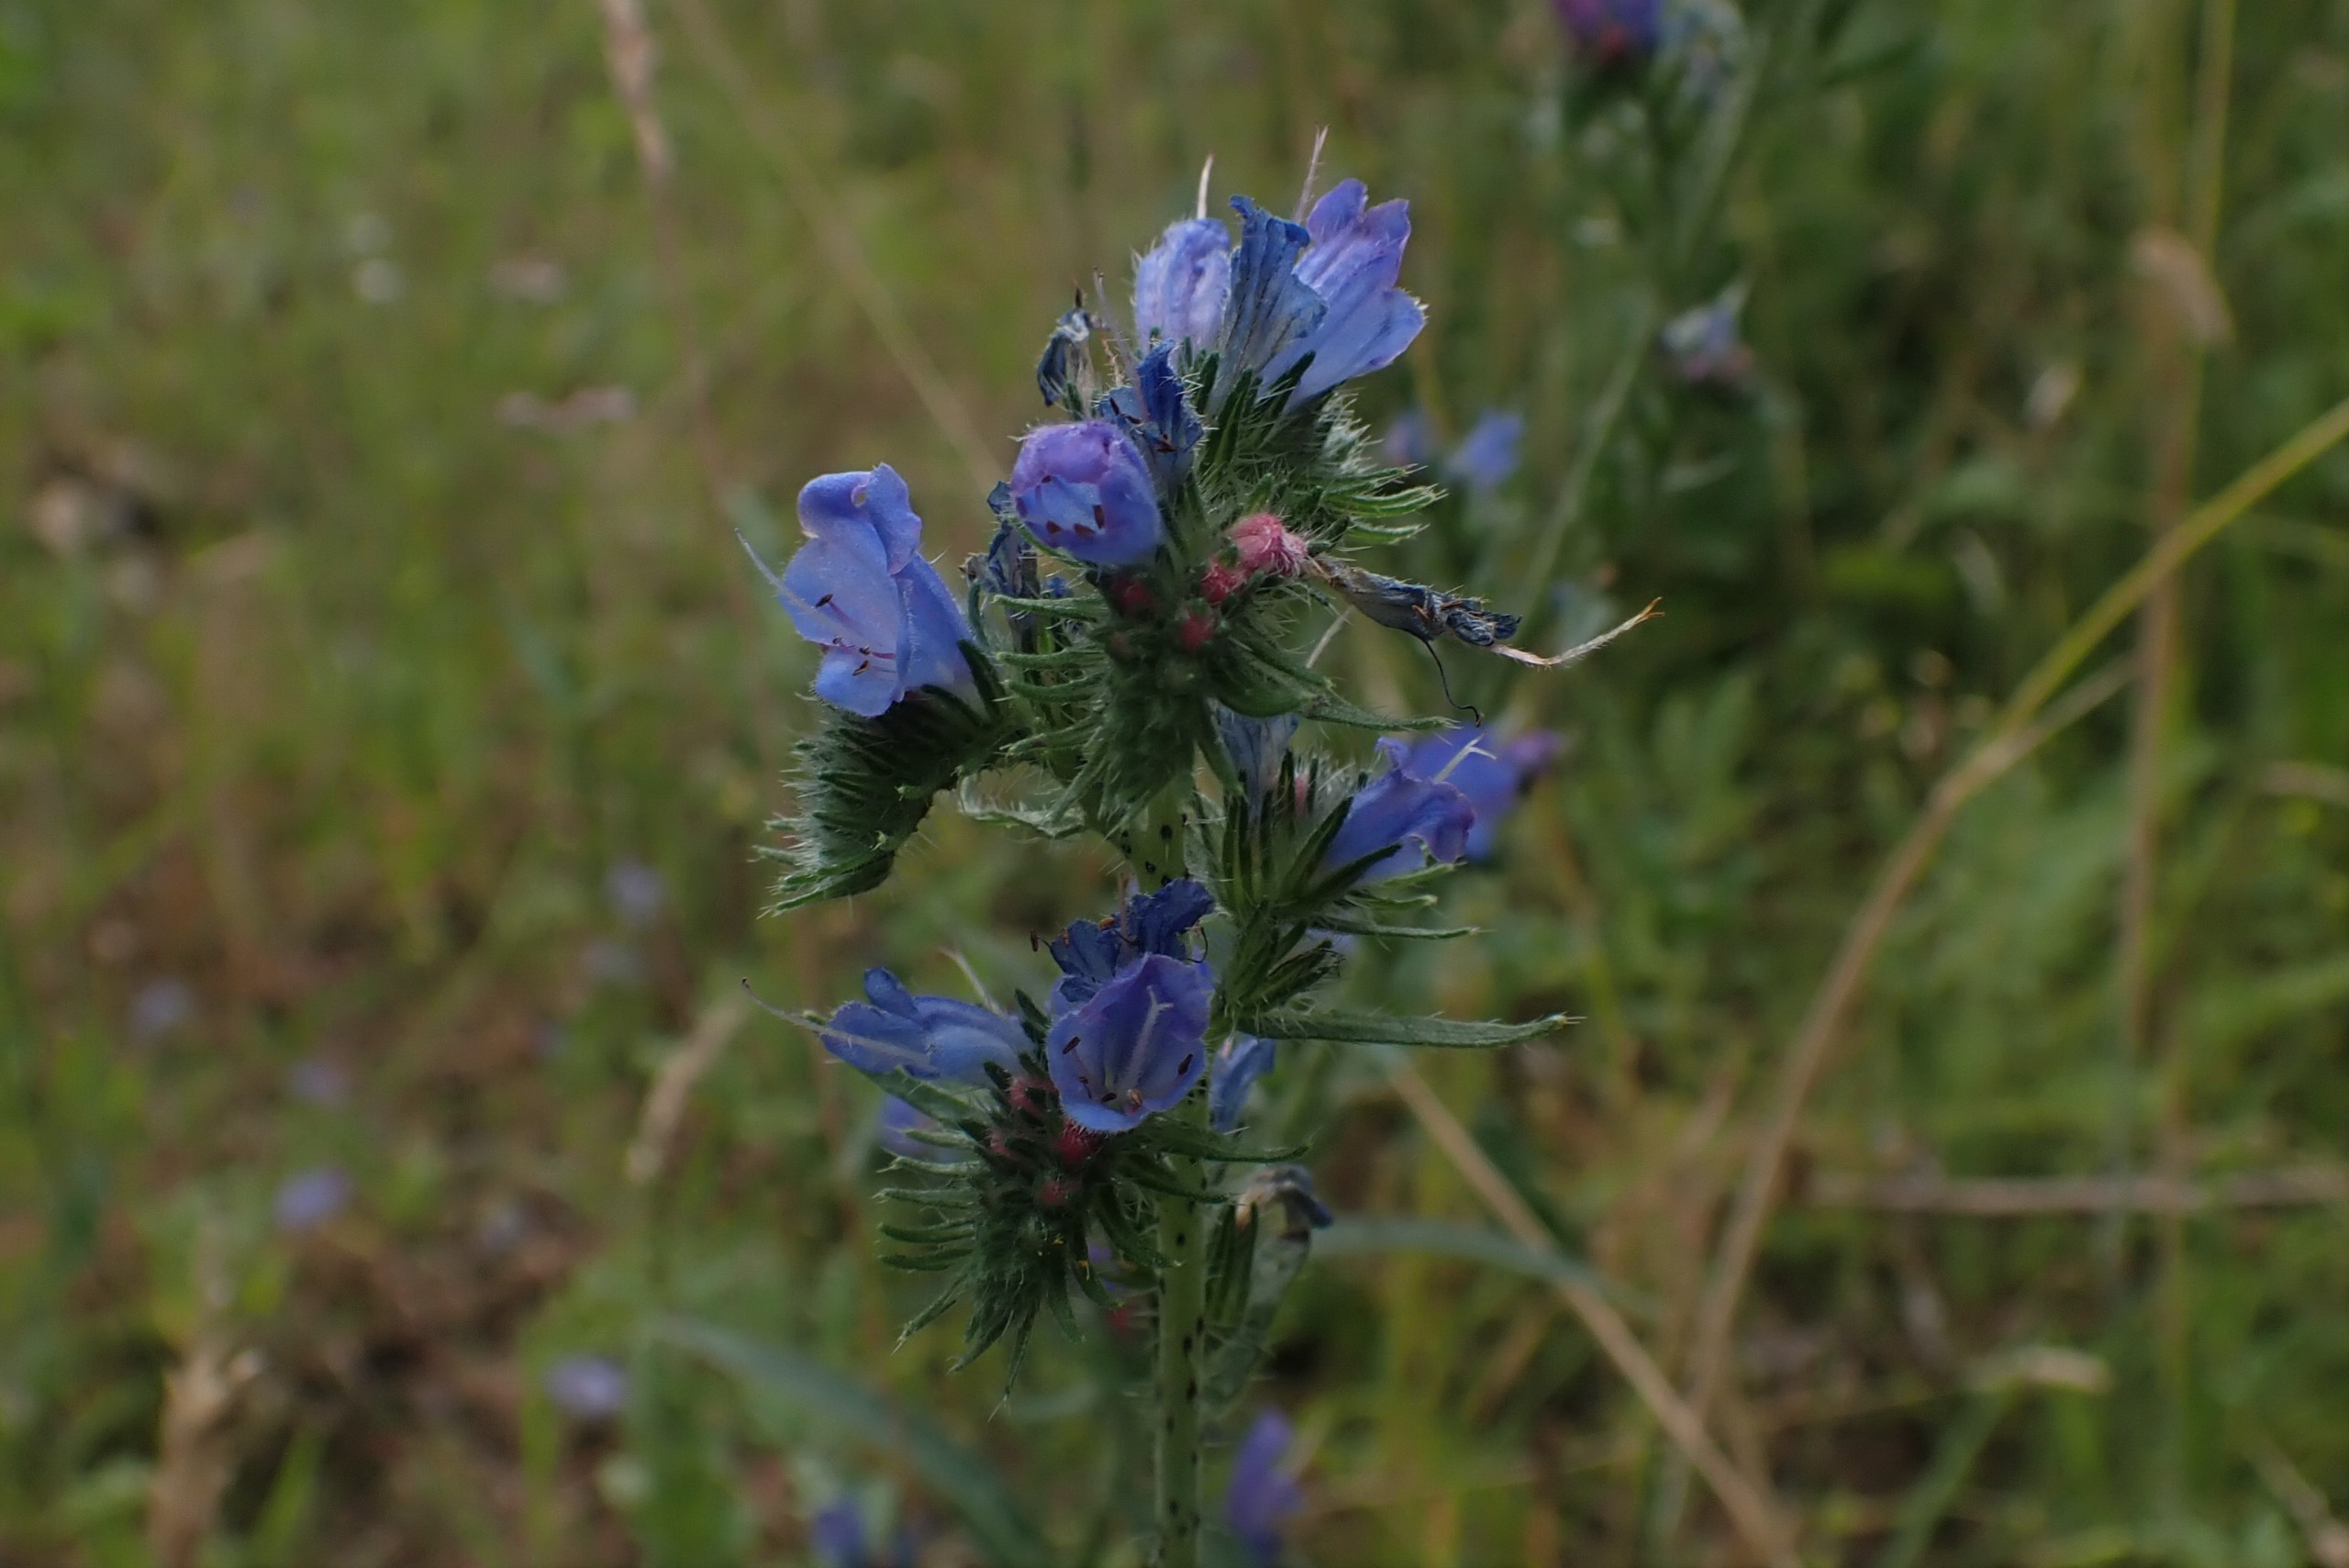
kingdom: Plantae
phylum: Tracheophyta
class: Magnoliopsida
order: Boraginales
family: Boraginaceae
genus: Echium
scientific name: Echium vulgare
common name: Slangehoved
